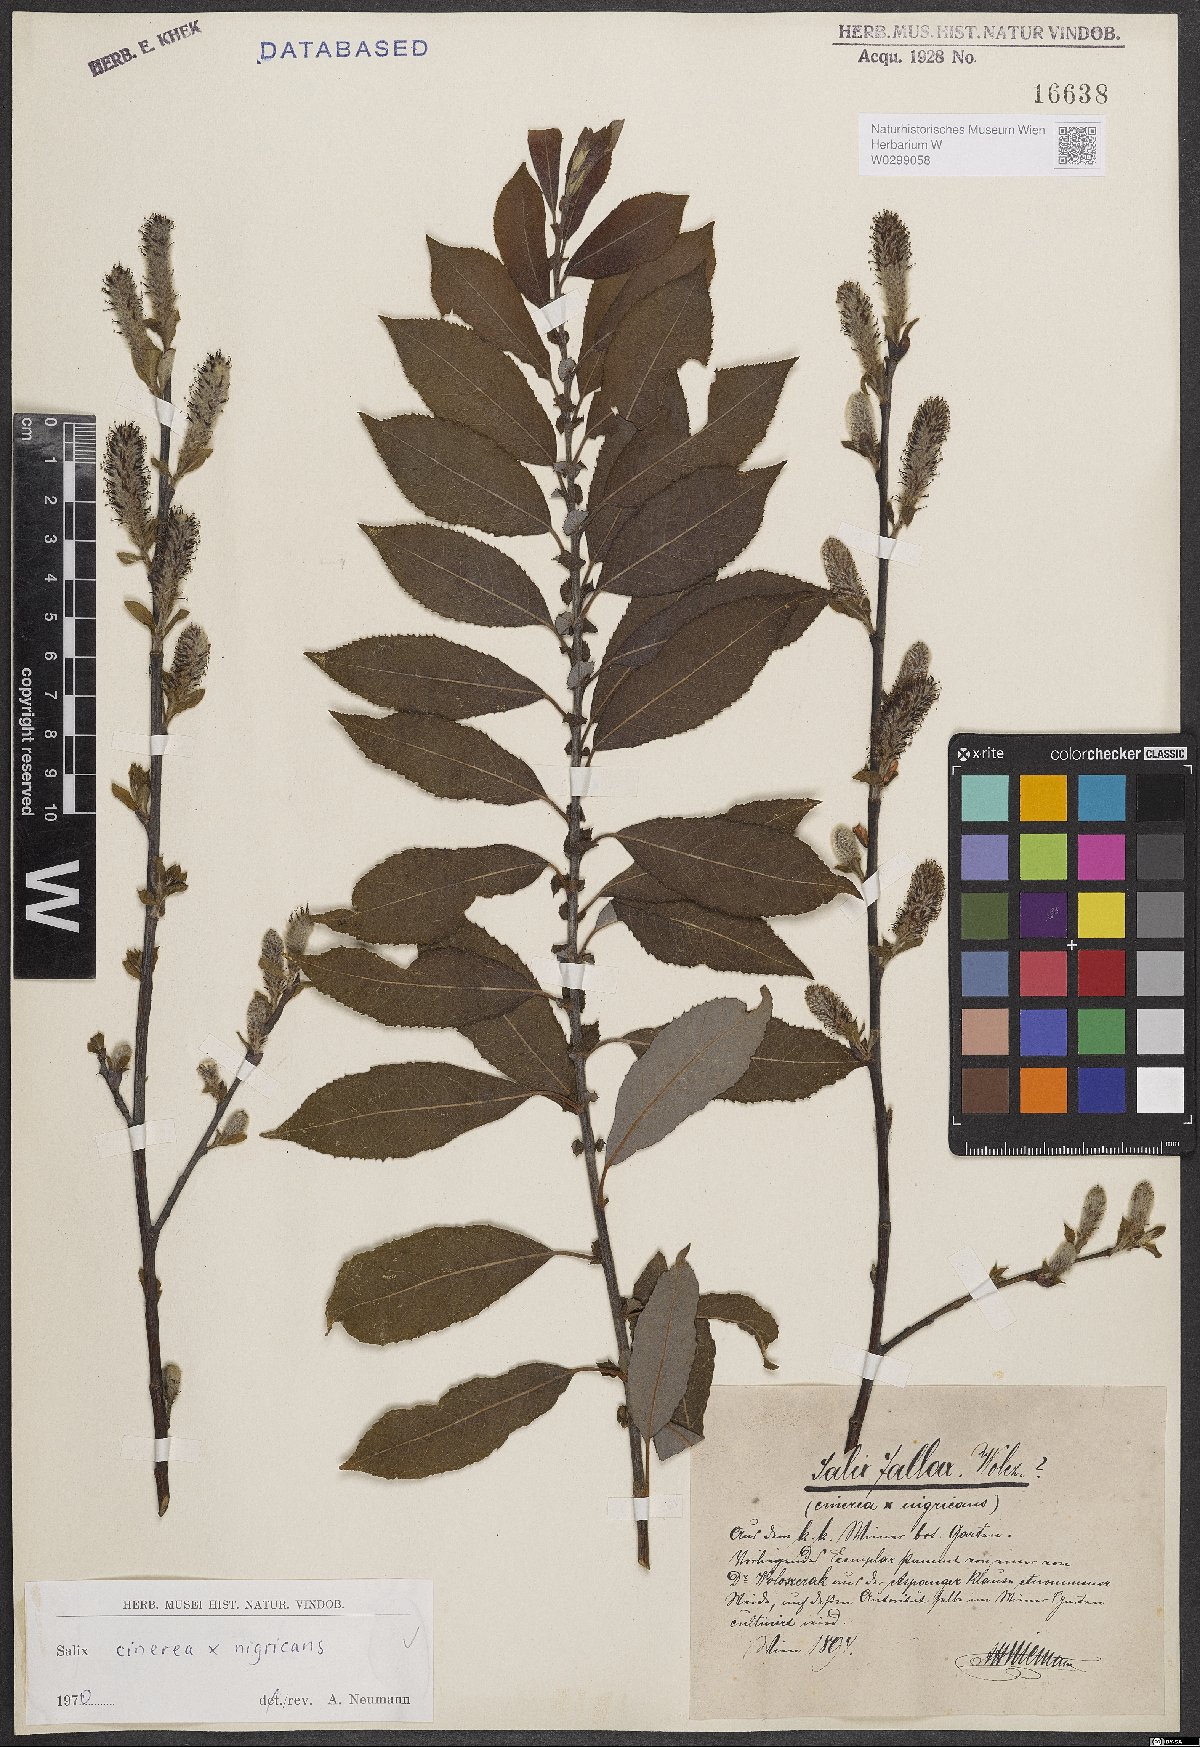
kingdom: Plantae
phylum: Tracheophyta
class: Magnoliopsida
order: Malpighiales
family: Salicaceae
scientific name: Salicaceae
